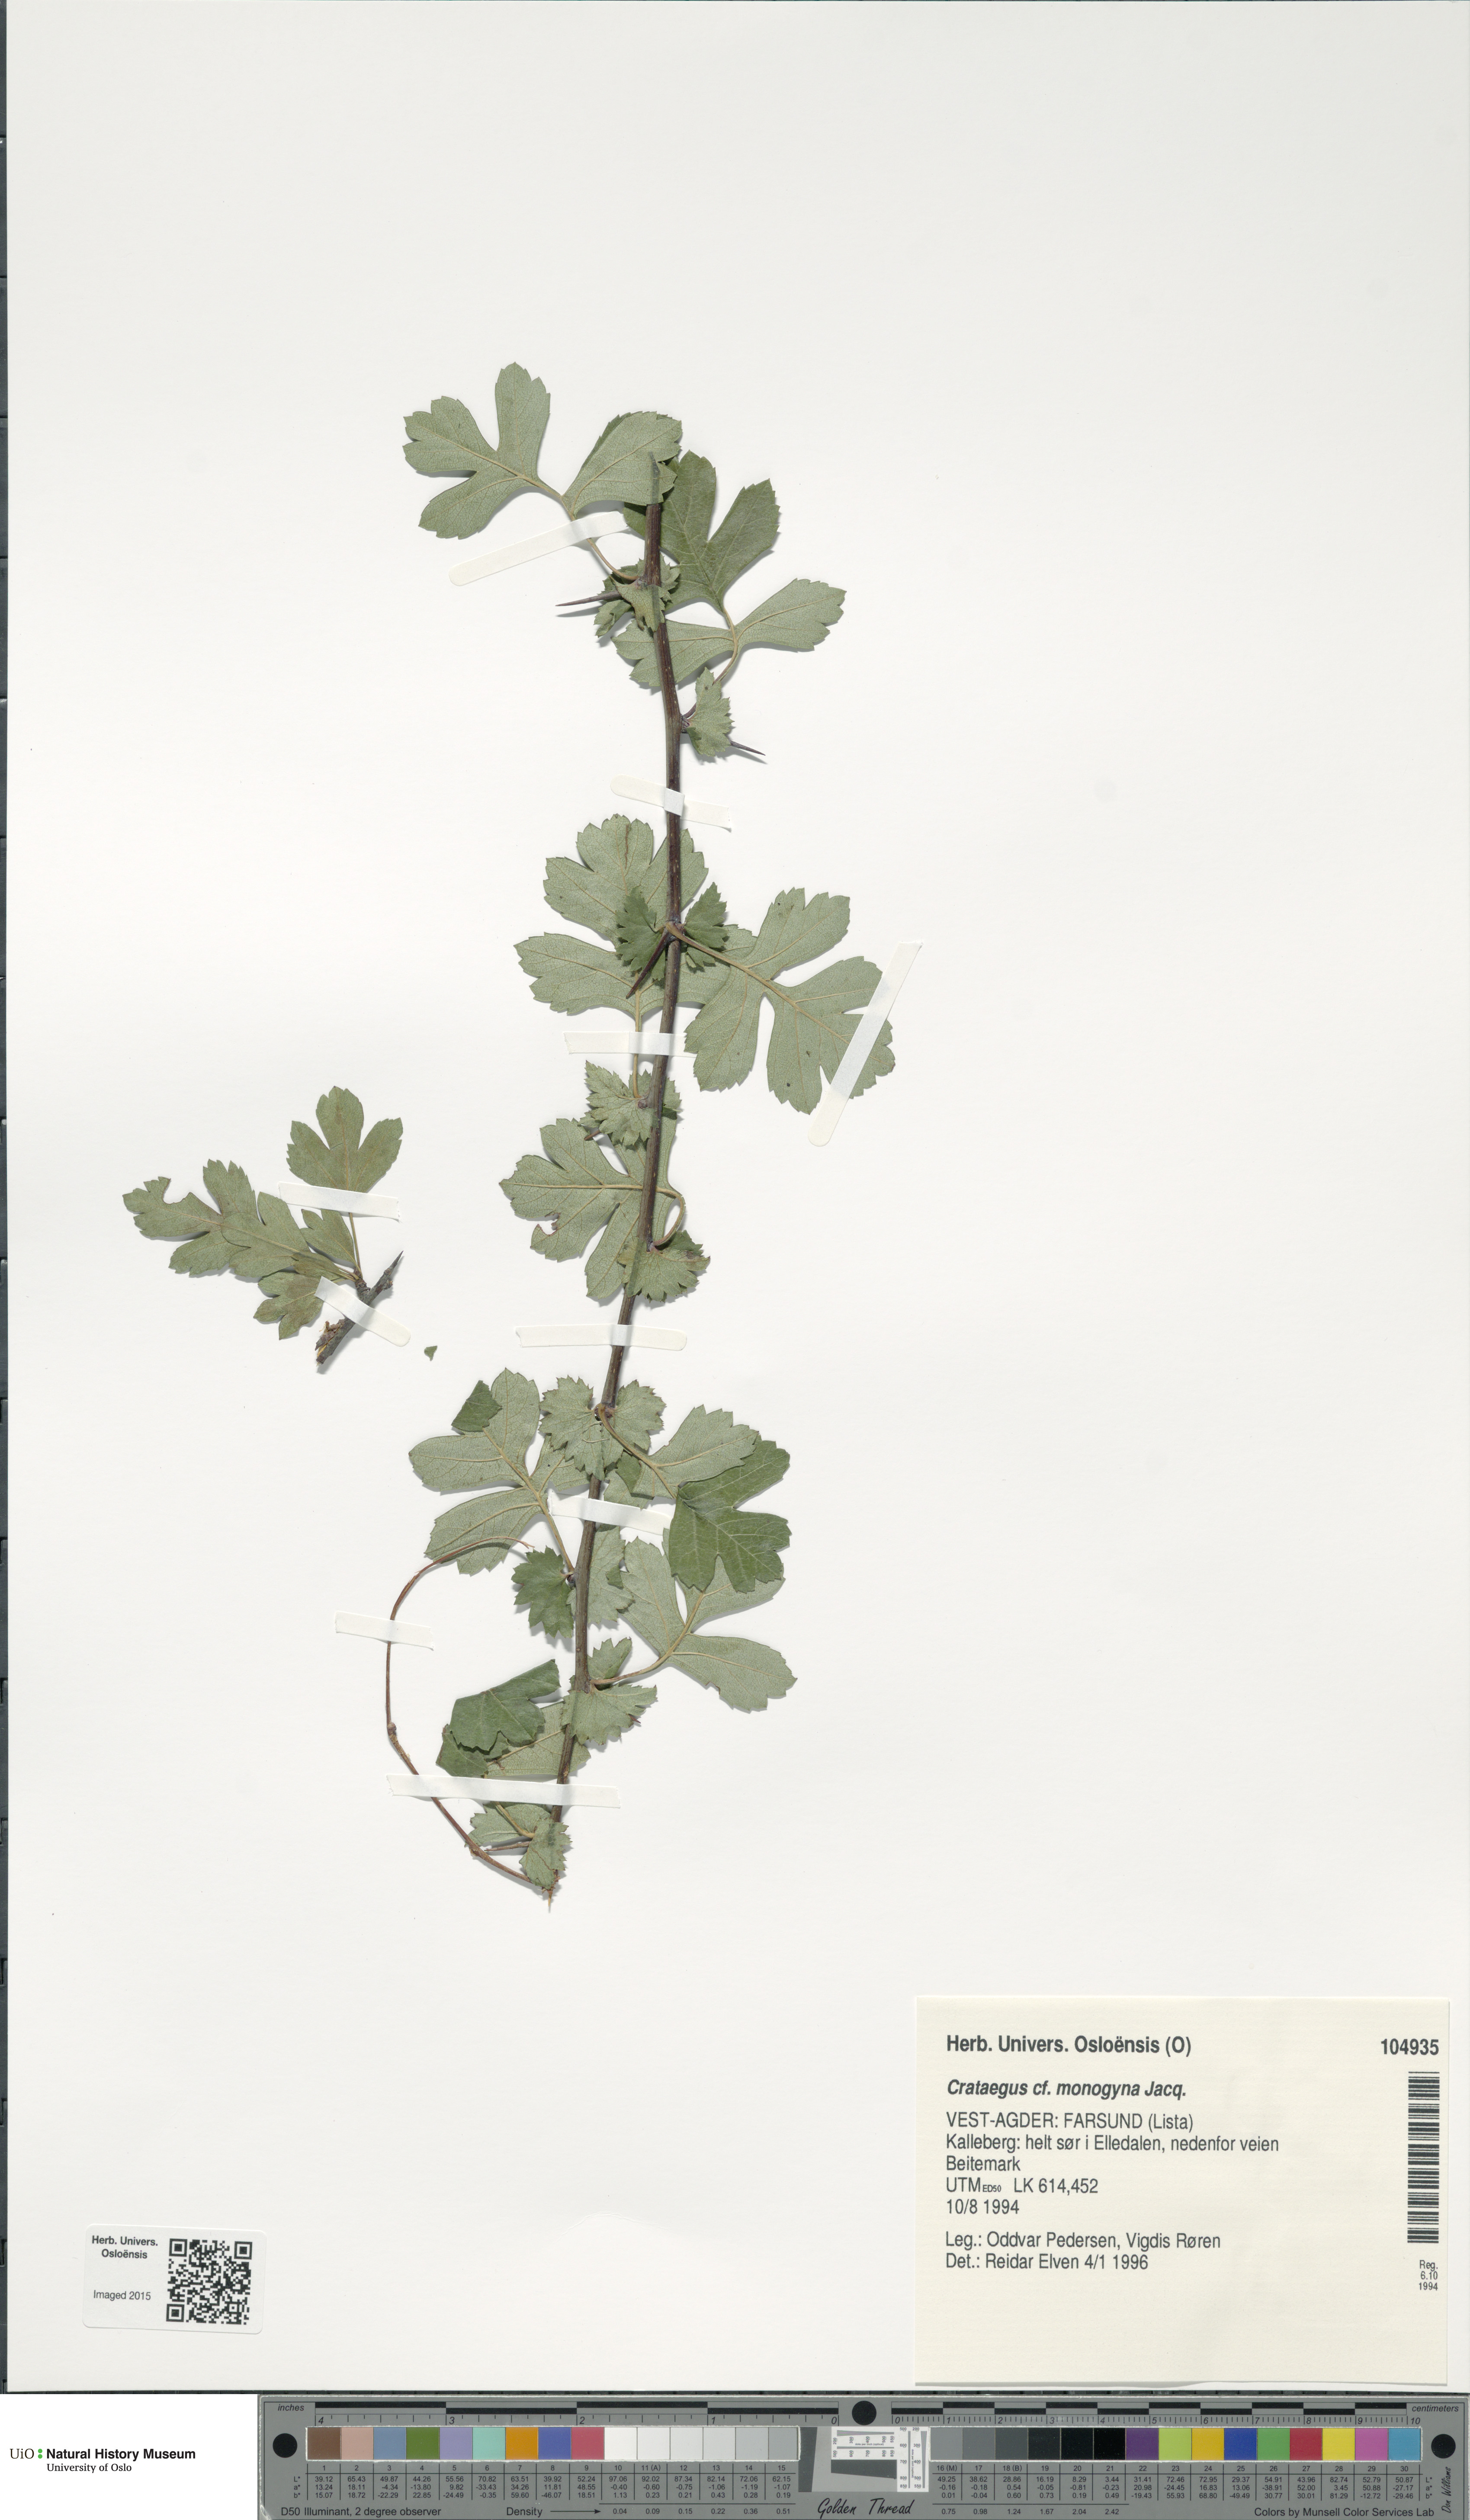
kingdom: Plantae
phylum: Tracheophyta
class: Magnoliopsida
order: Rosales
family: Rosaceae
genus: Crataegus
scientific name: Crataegus monogyna
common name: Hawthorn
